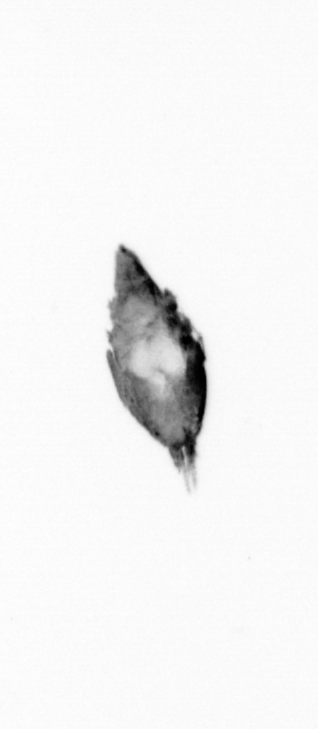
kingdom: Animalia
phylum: Arthropoda
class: Copepoda
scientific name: Copepoda
